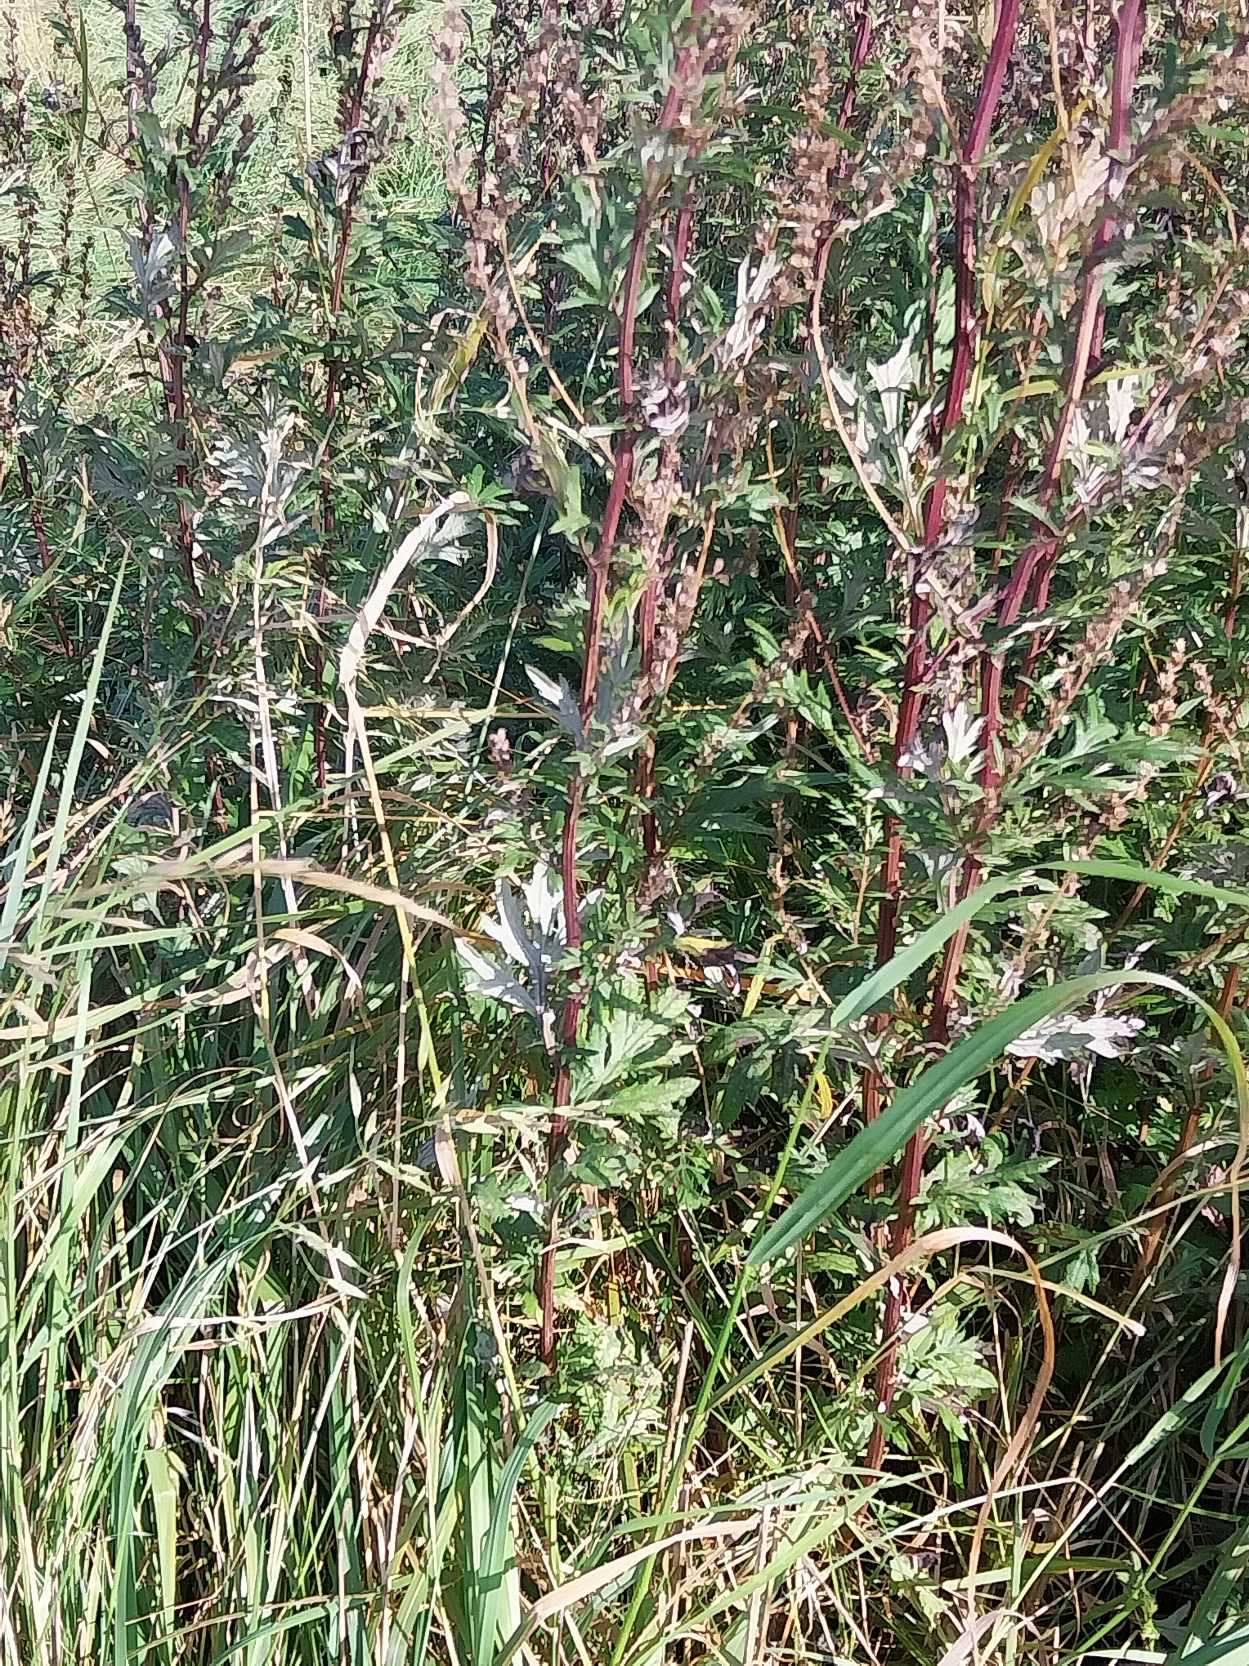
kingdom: Plantae
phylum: Tracheophyta
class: Magnoliopsida
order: Asterales
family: Asteraceae
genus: Artemisia
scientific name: Artemisia vulgaris
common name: Grå-bynke
